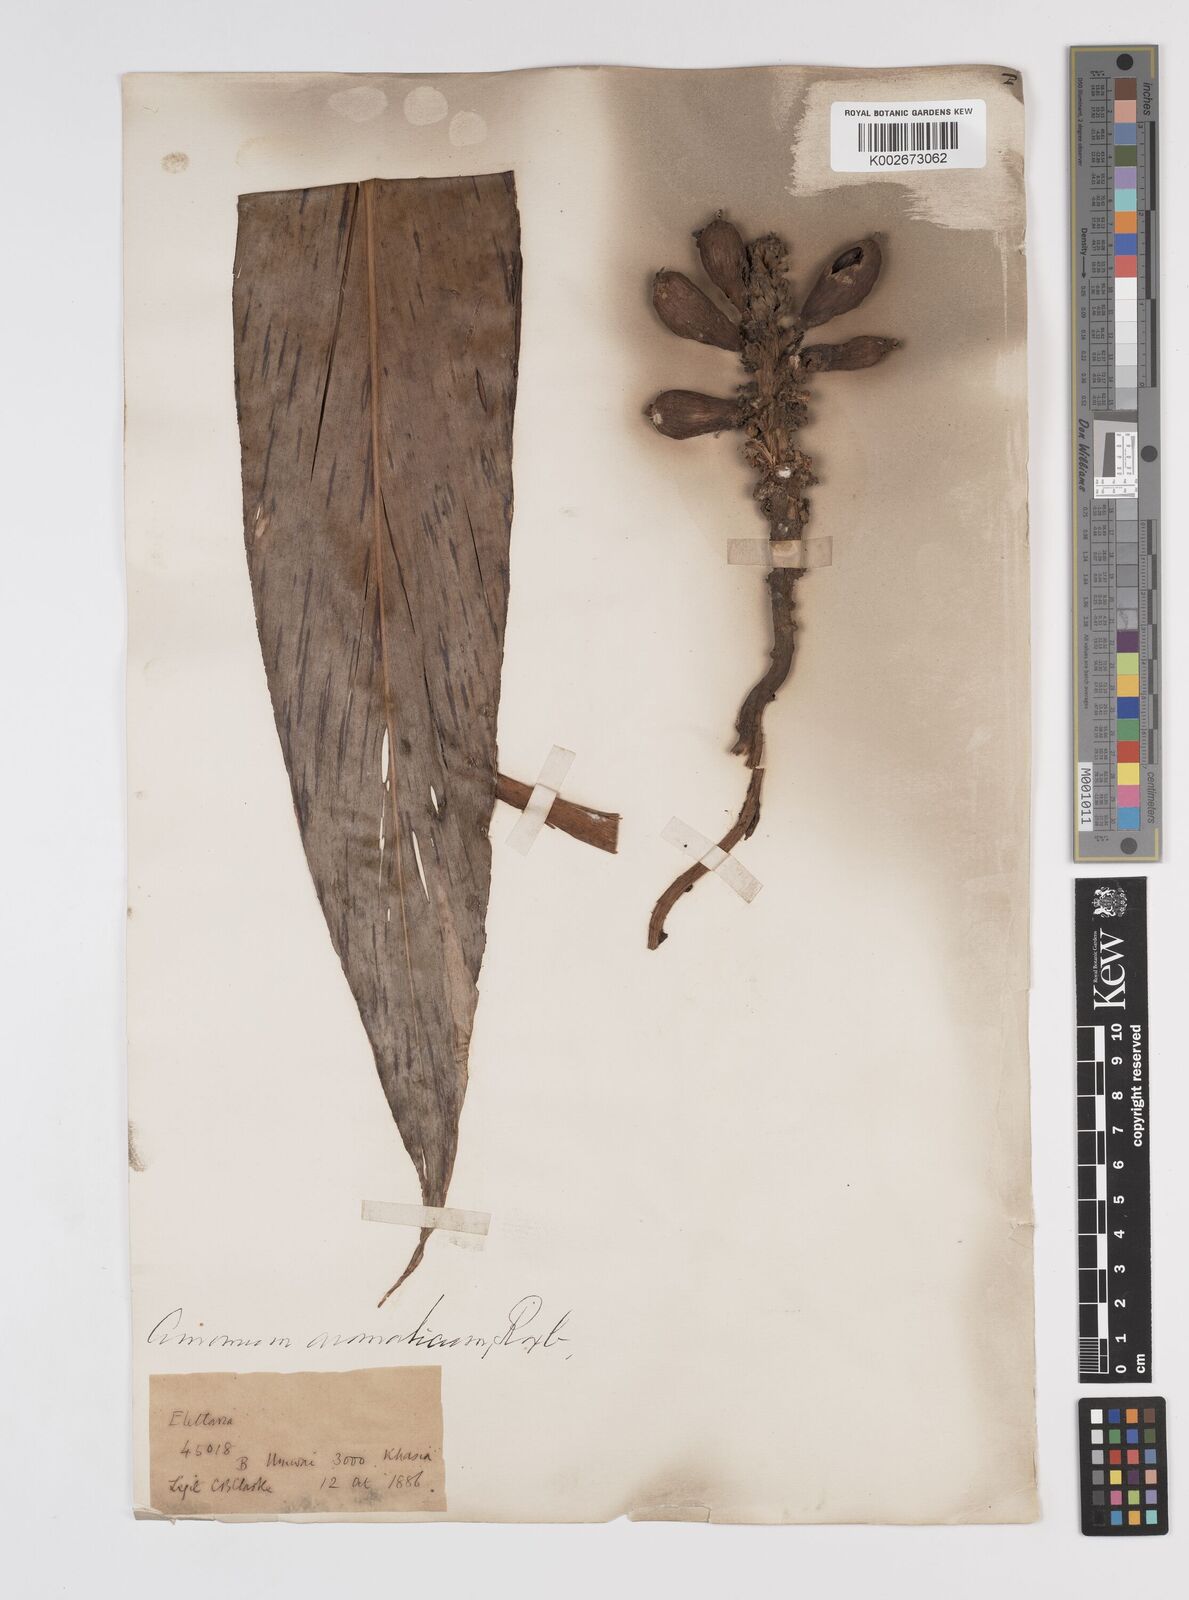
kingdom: Plantae
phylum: Tracheophyta
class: Liliopsida
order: Zingiberales
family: Zingiberaceae
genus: Wurfbainia
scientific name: Wurfbainia aromatica
